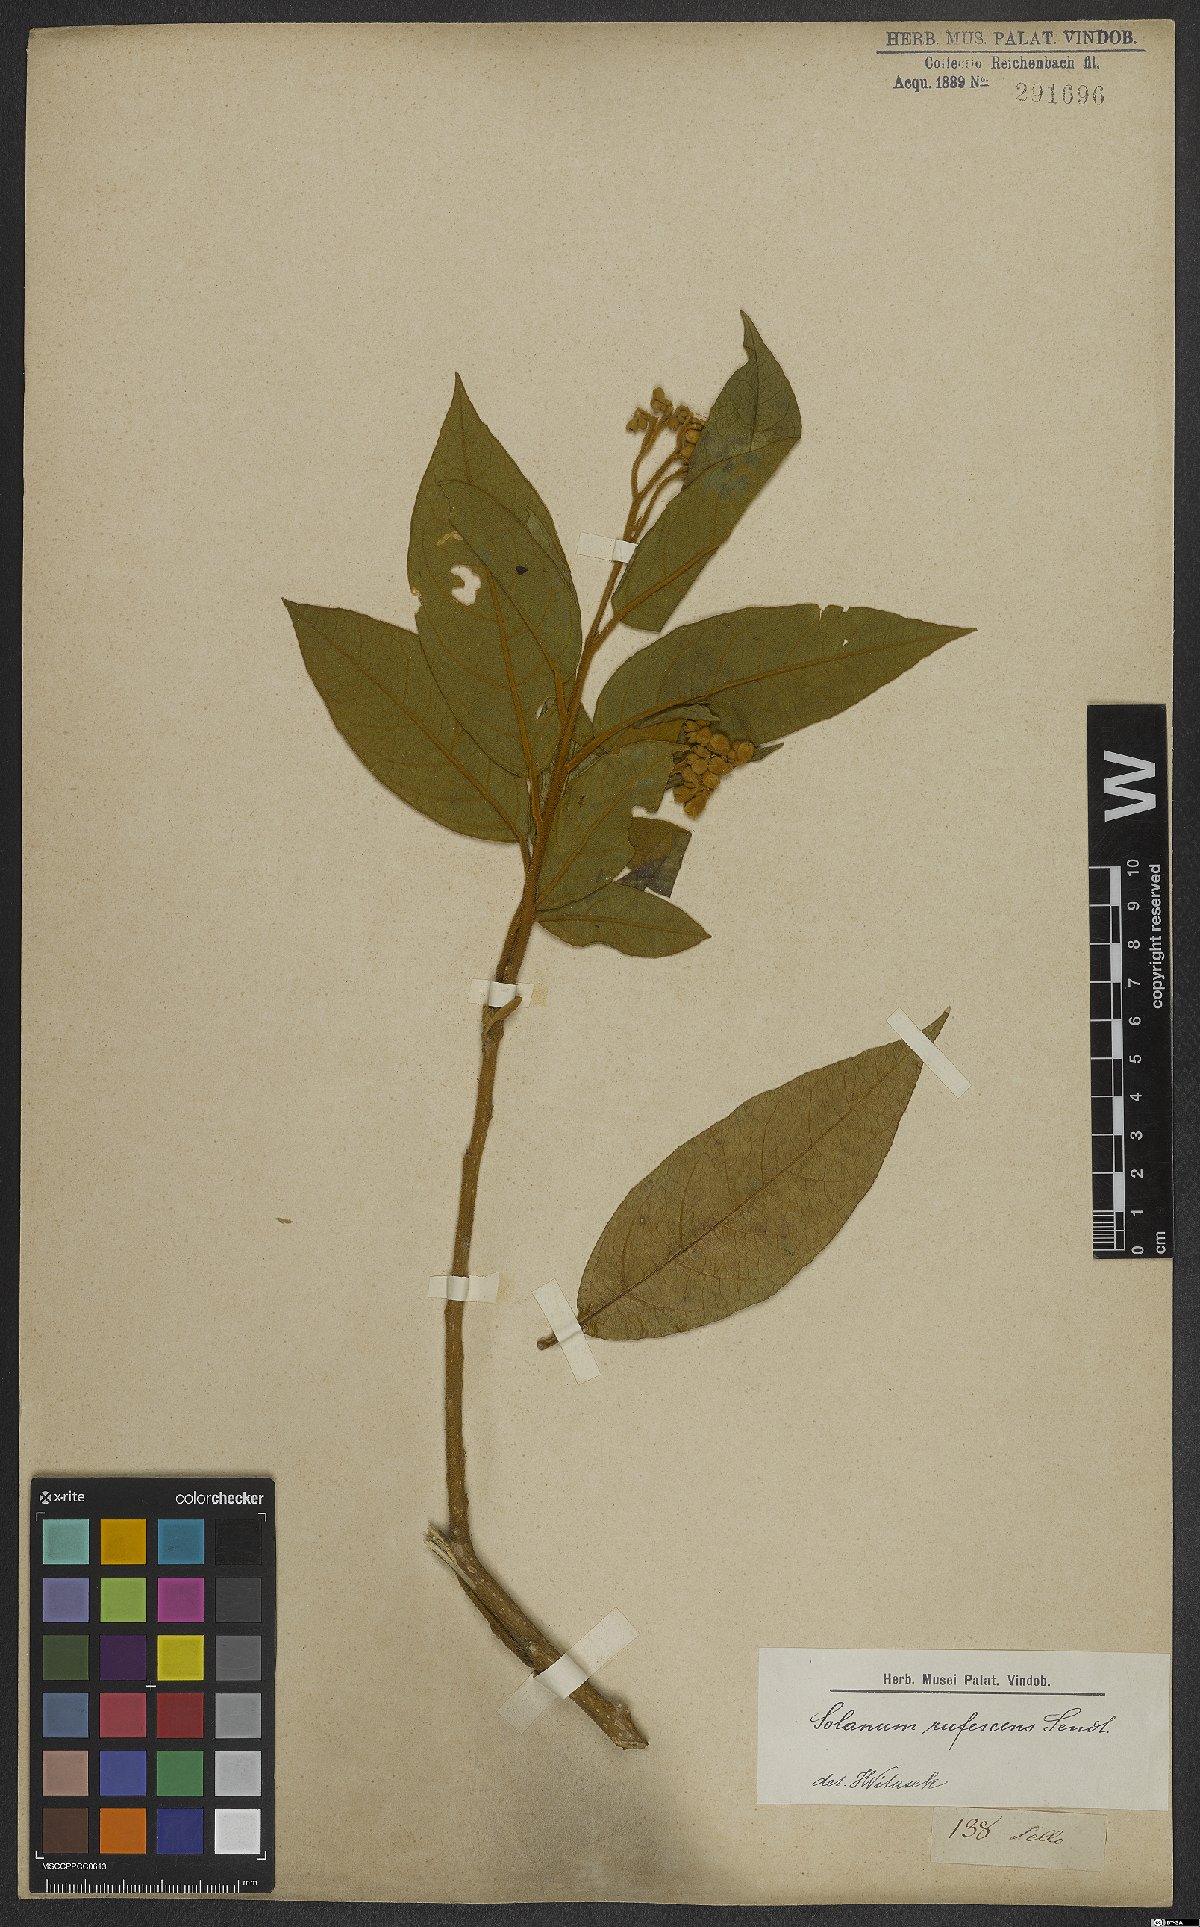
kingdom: Plantae
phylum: Tracheophyta
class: Magnoliopsida
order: Solanales
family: Solanaceae
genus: Solanum
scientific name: Solanum rufescens
